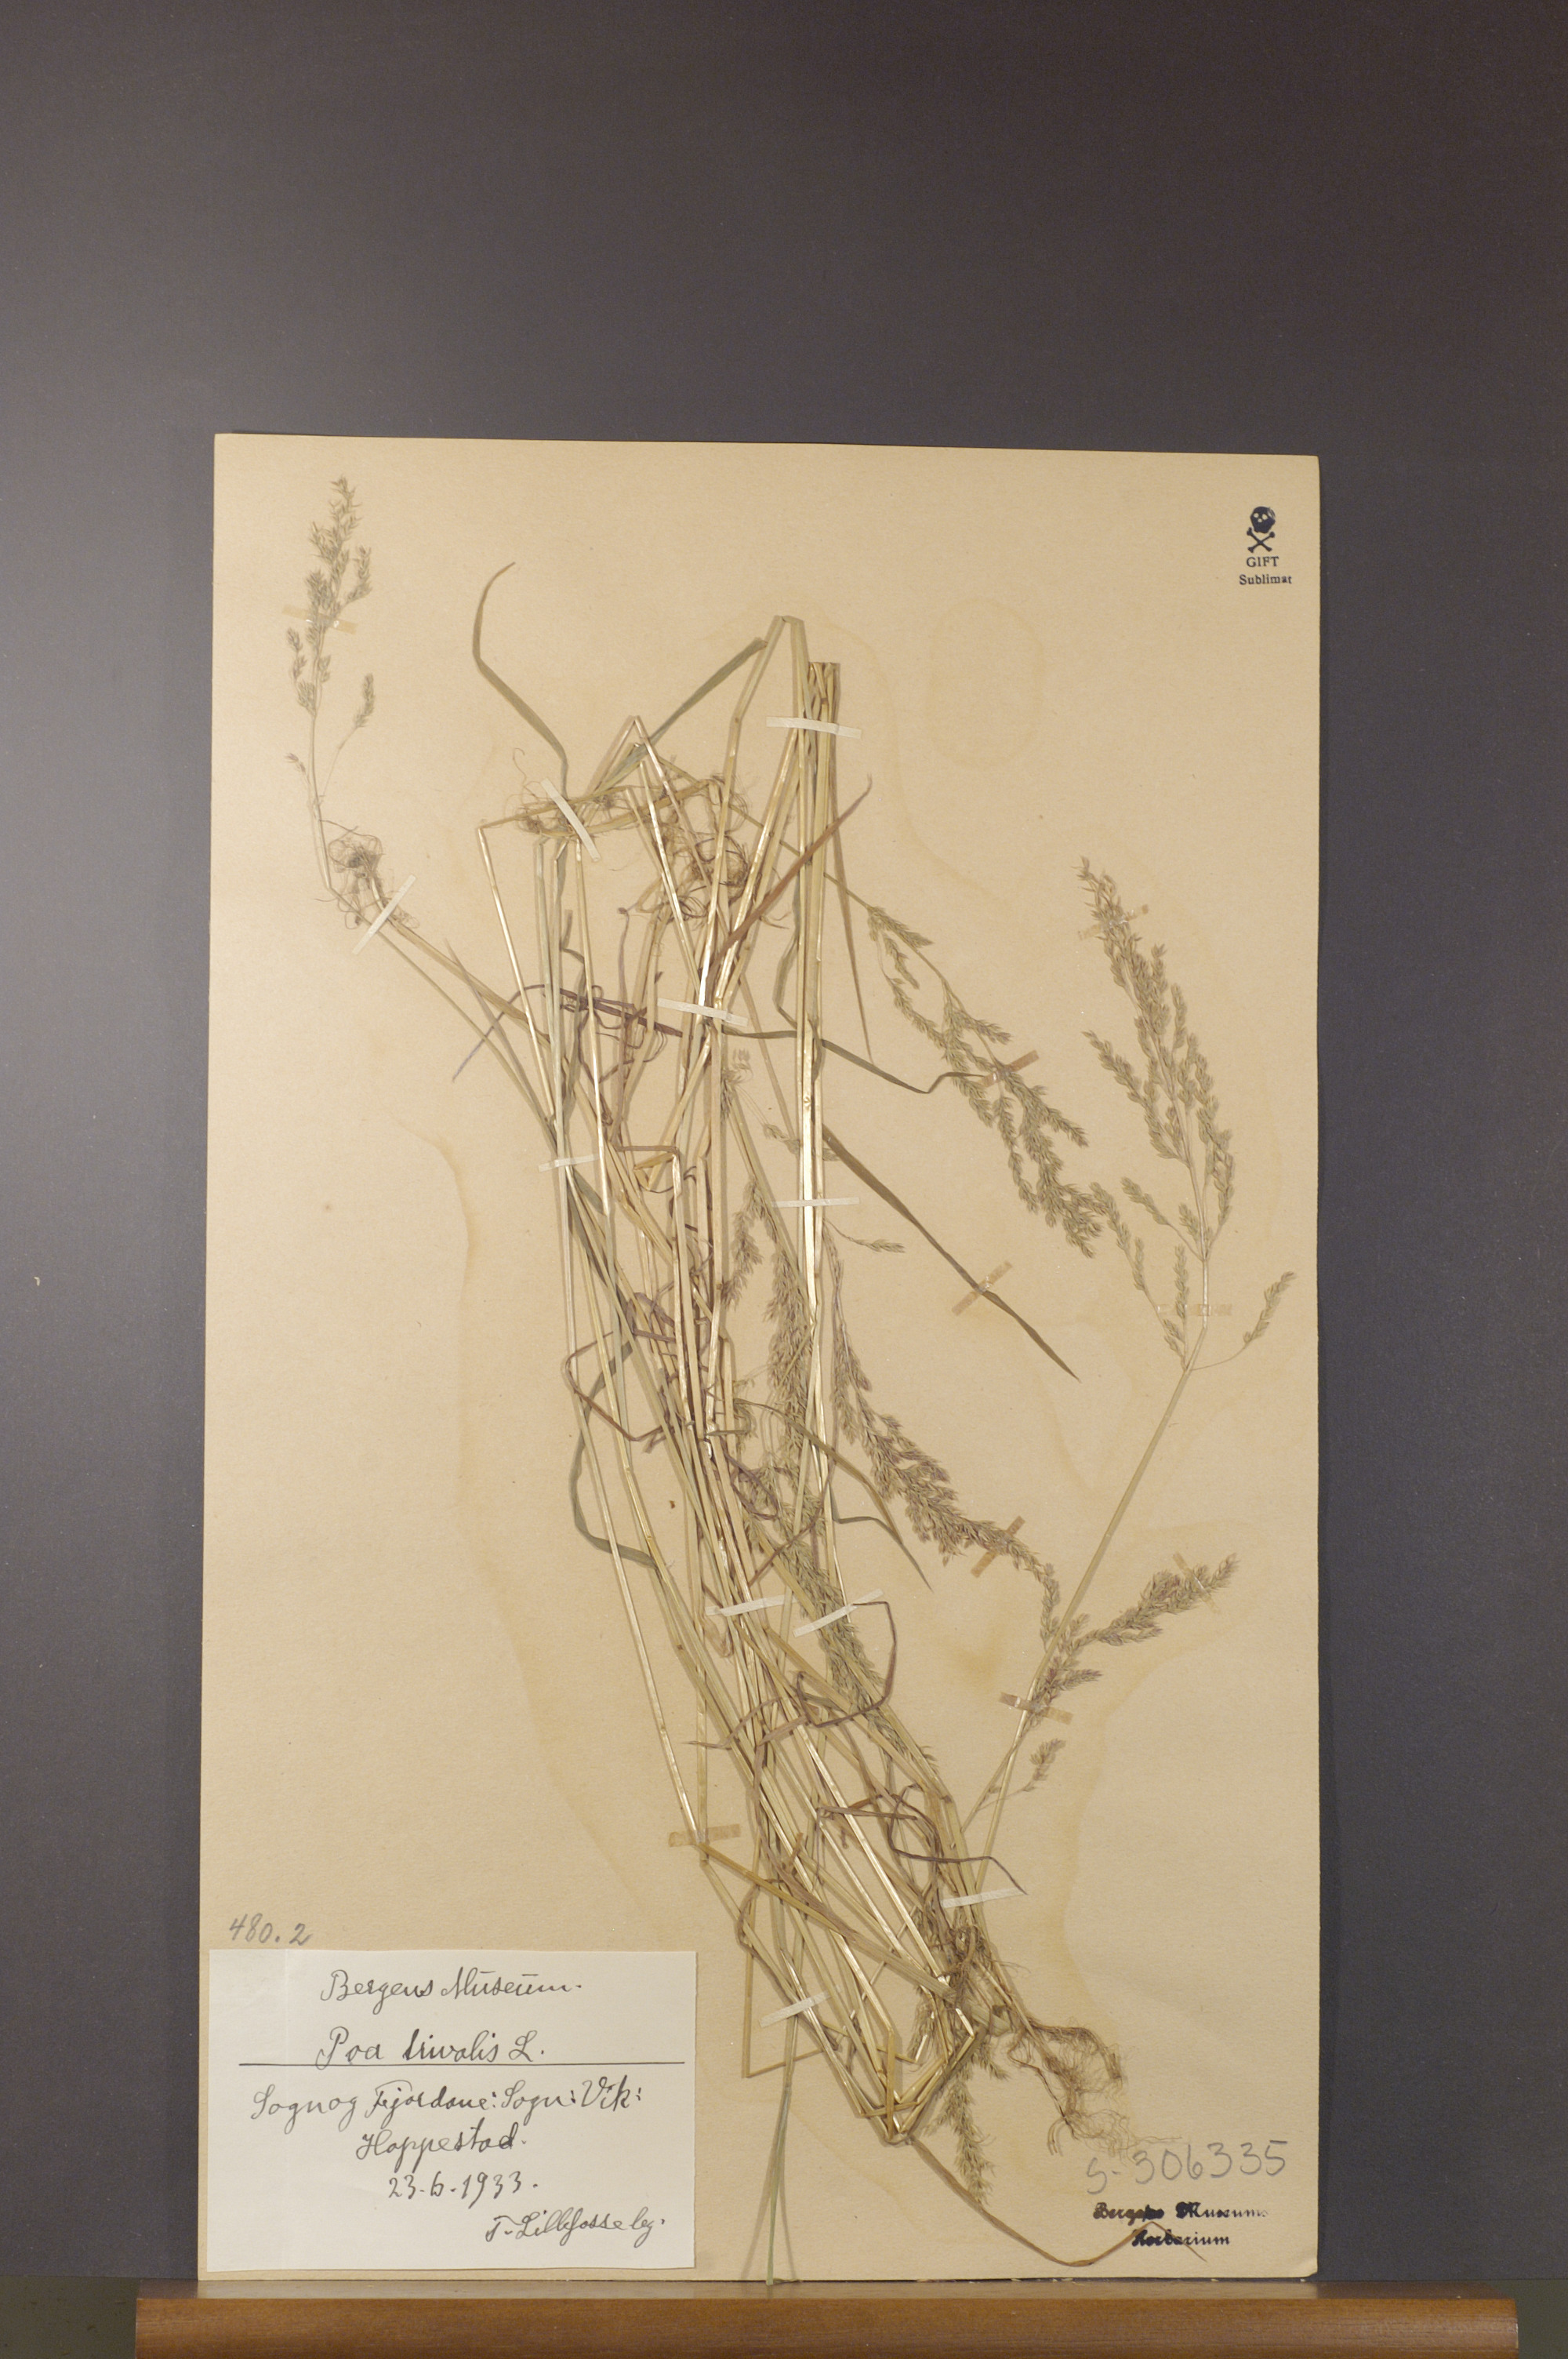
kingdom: Plantae
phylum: Tracheophyta
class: Liliopsida
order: Poales
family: Poaceae
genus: Poa
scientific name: Poa trivialis
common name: Rough bluegrass
